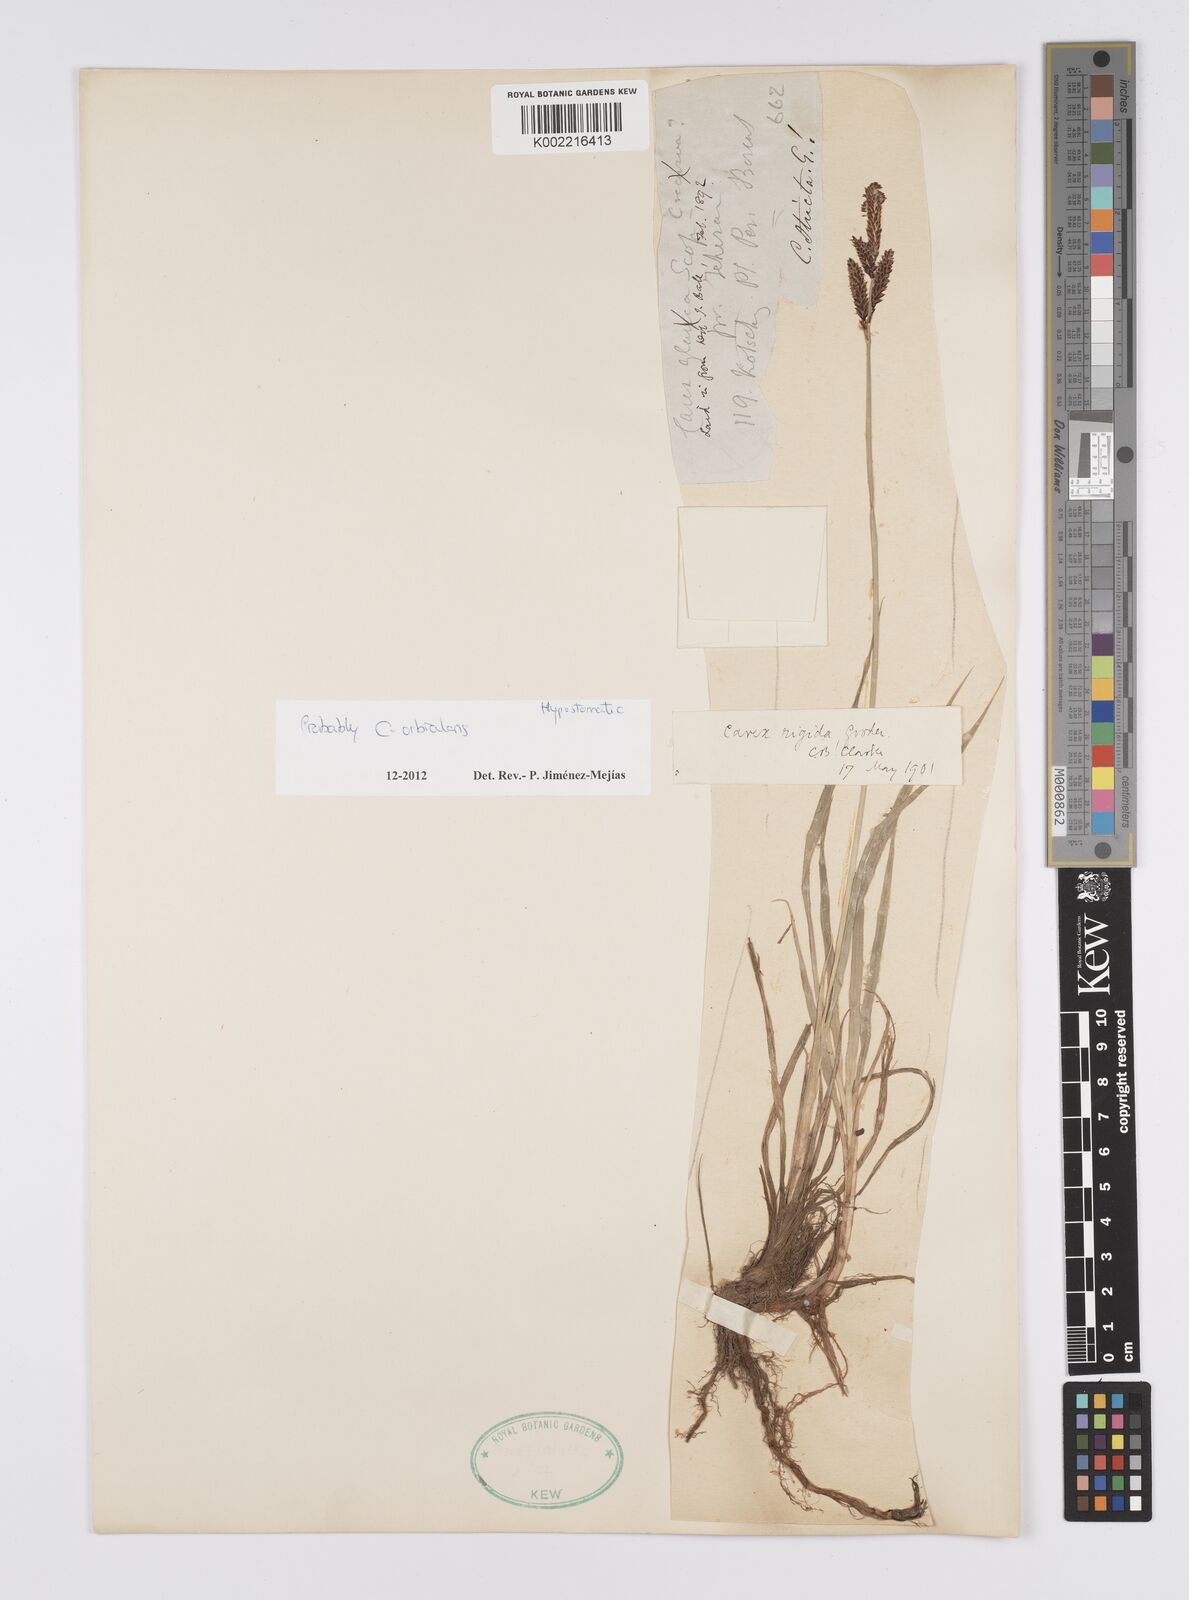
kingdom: Plantae
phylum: Tracheophyta
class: Liliopsida
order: Poales
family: Cyperaceae
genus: Carex
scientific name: Carex orbicularis
